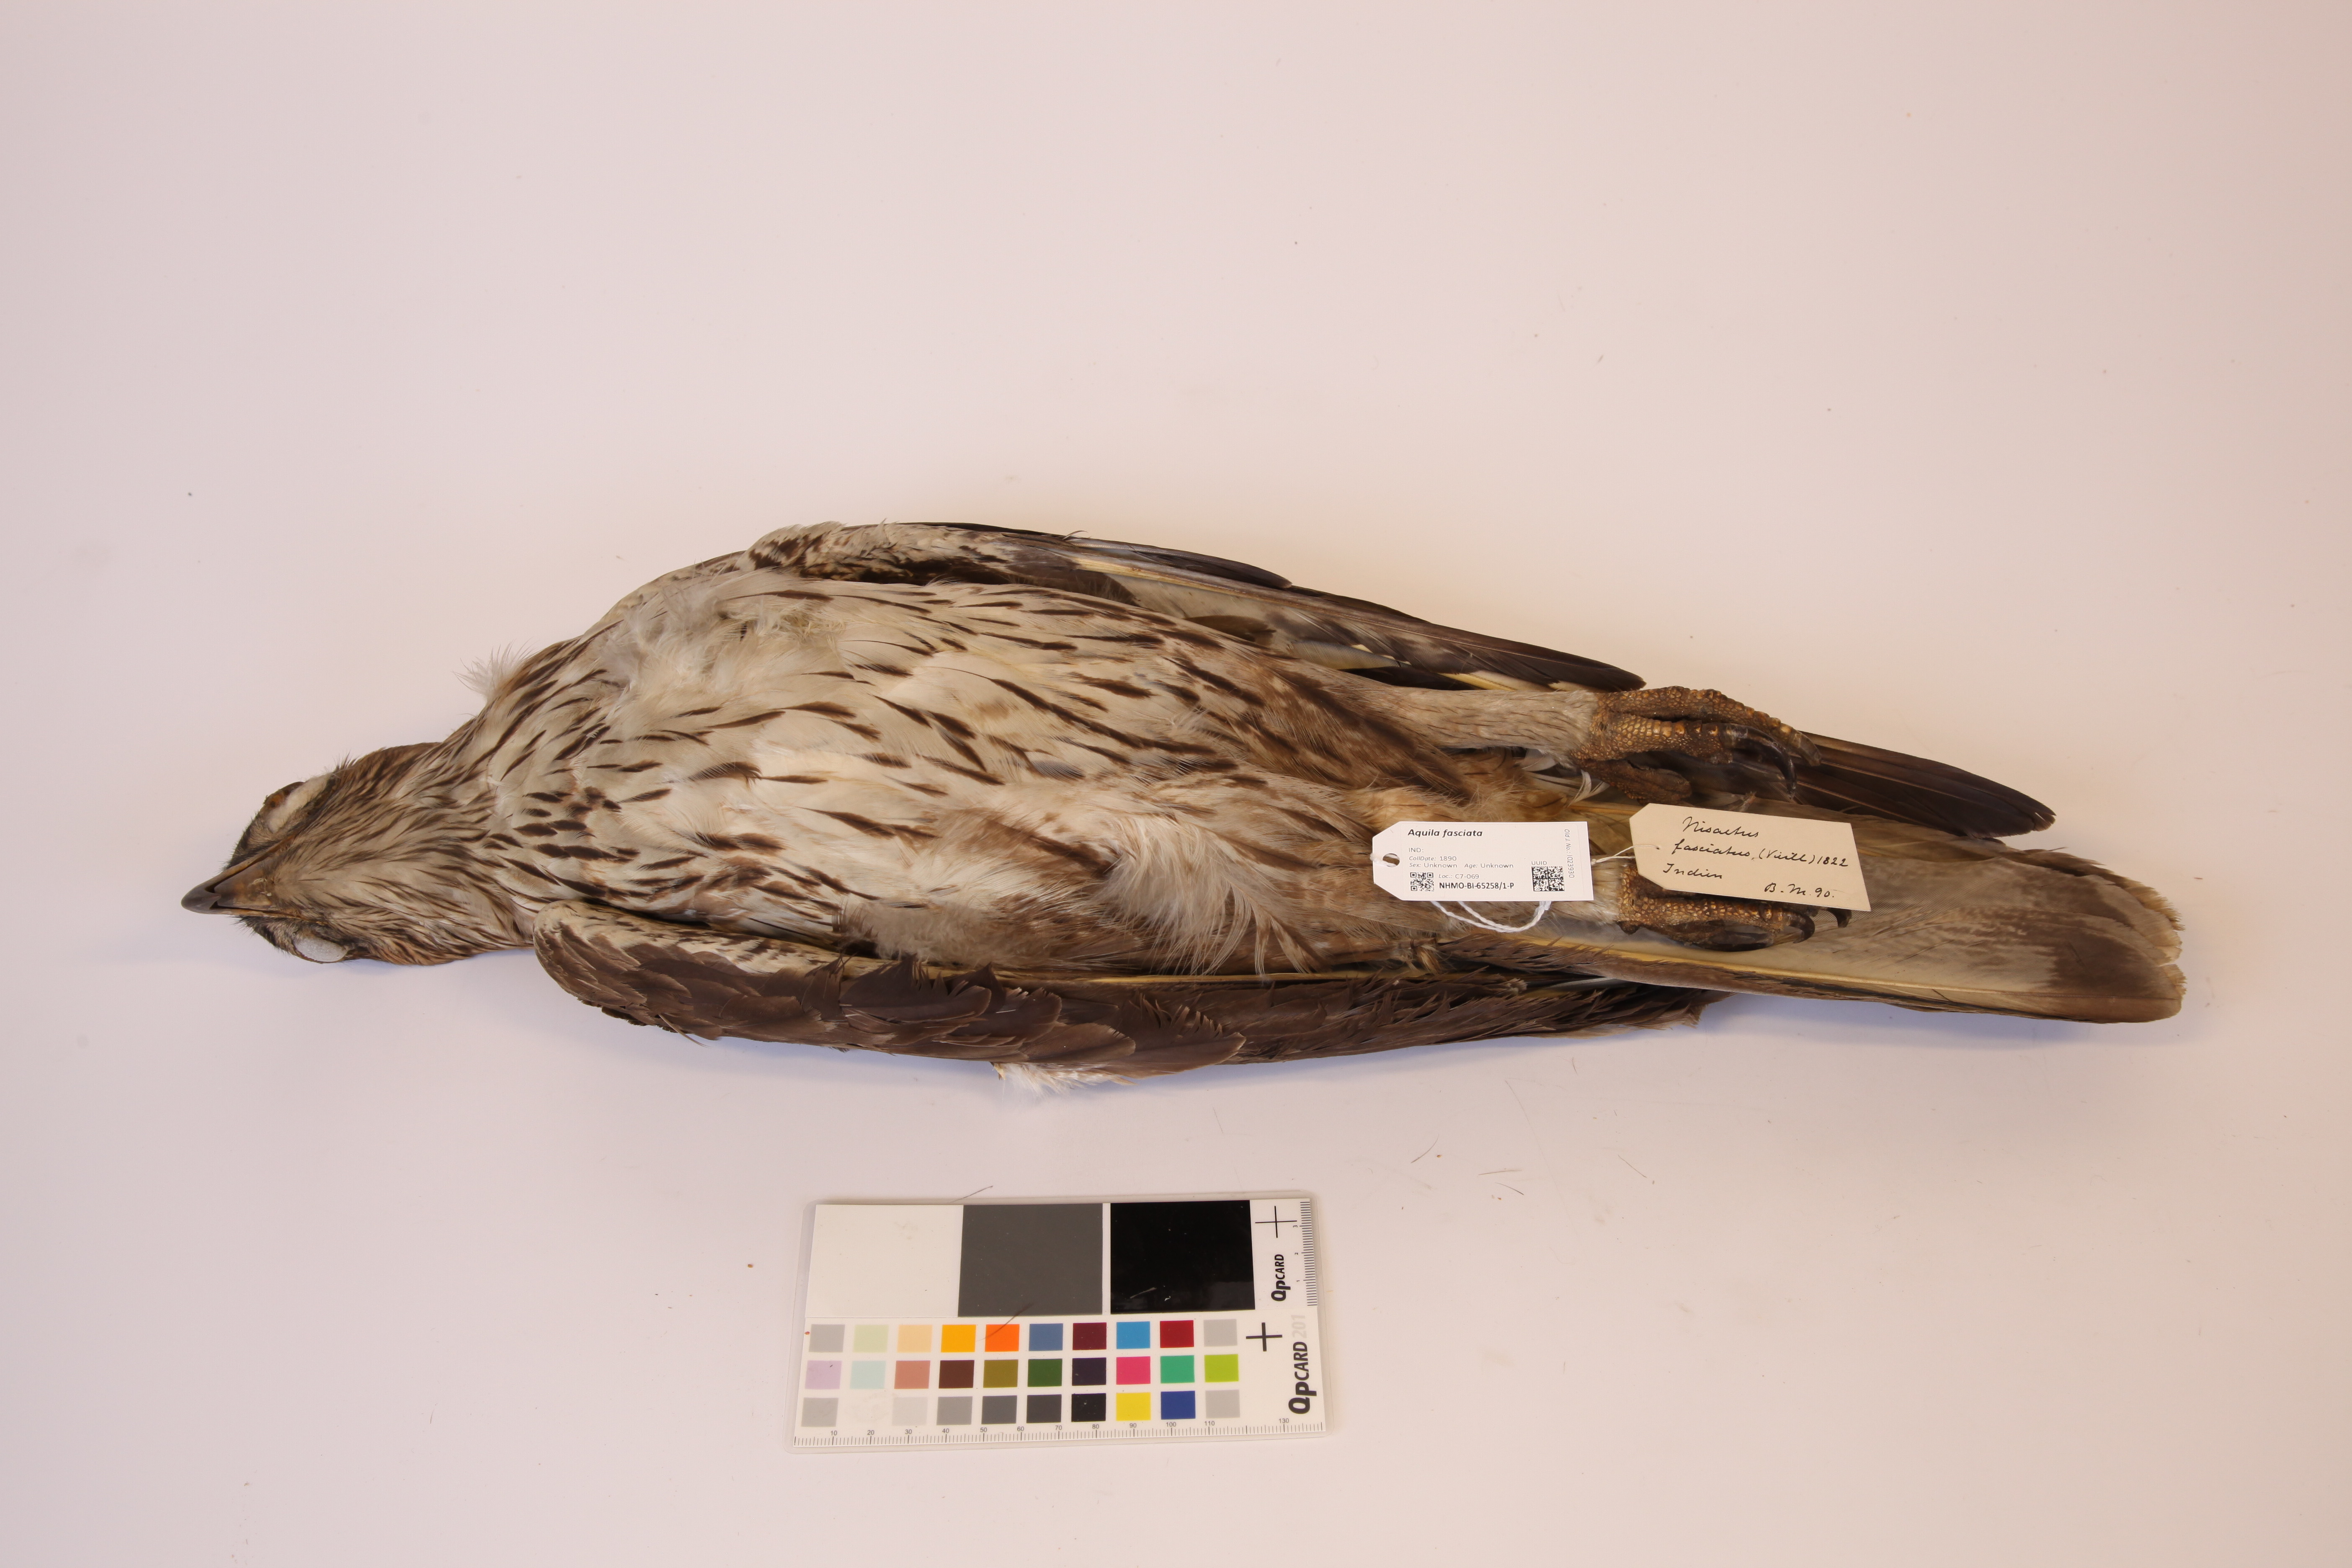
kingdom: Animalia
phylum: Chordata
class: Aves
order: Accipitriformes
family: Accipitridae
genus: Aquila
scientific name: Aquila fasciata
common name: Bonelli's eagle
